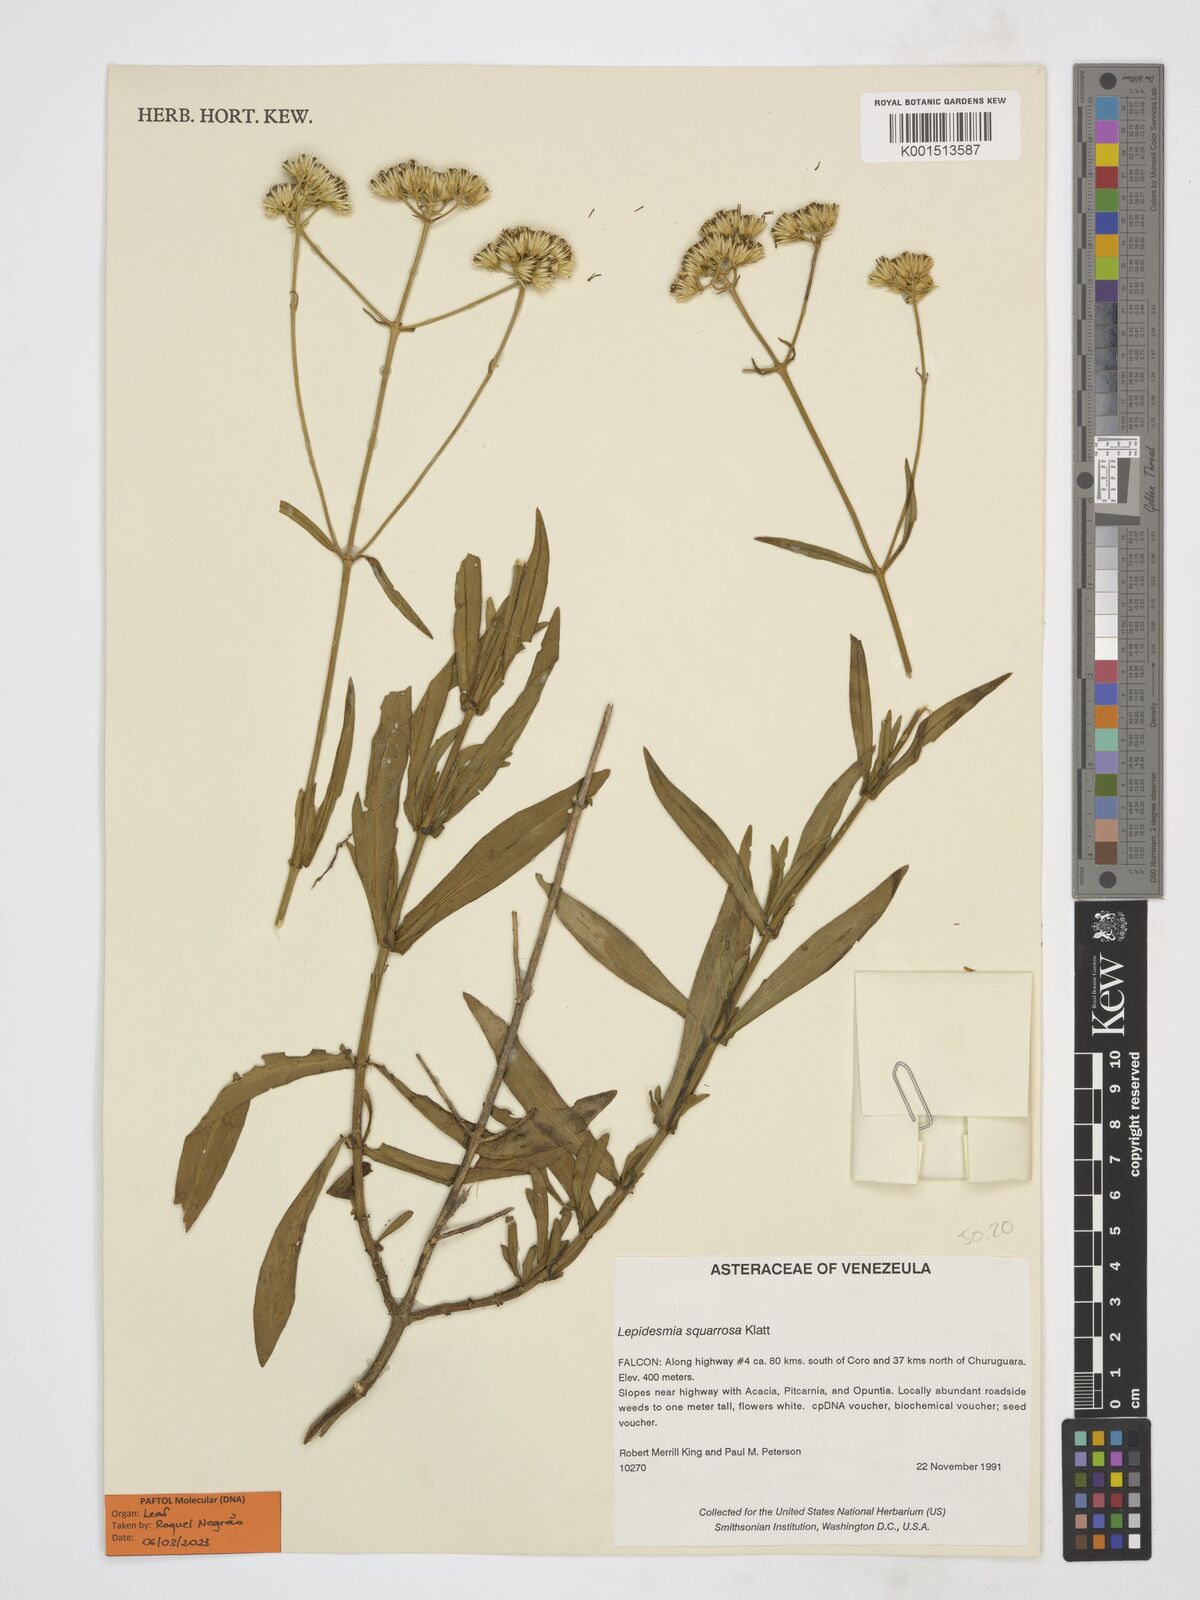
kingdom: Plantae
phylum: Tracheophyta
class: Magnoliopsida
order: Asterales
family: Asteraceae
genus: Lepidesmia
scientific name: Lepidesmia squarrosa
